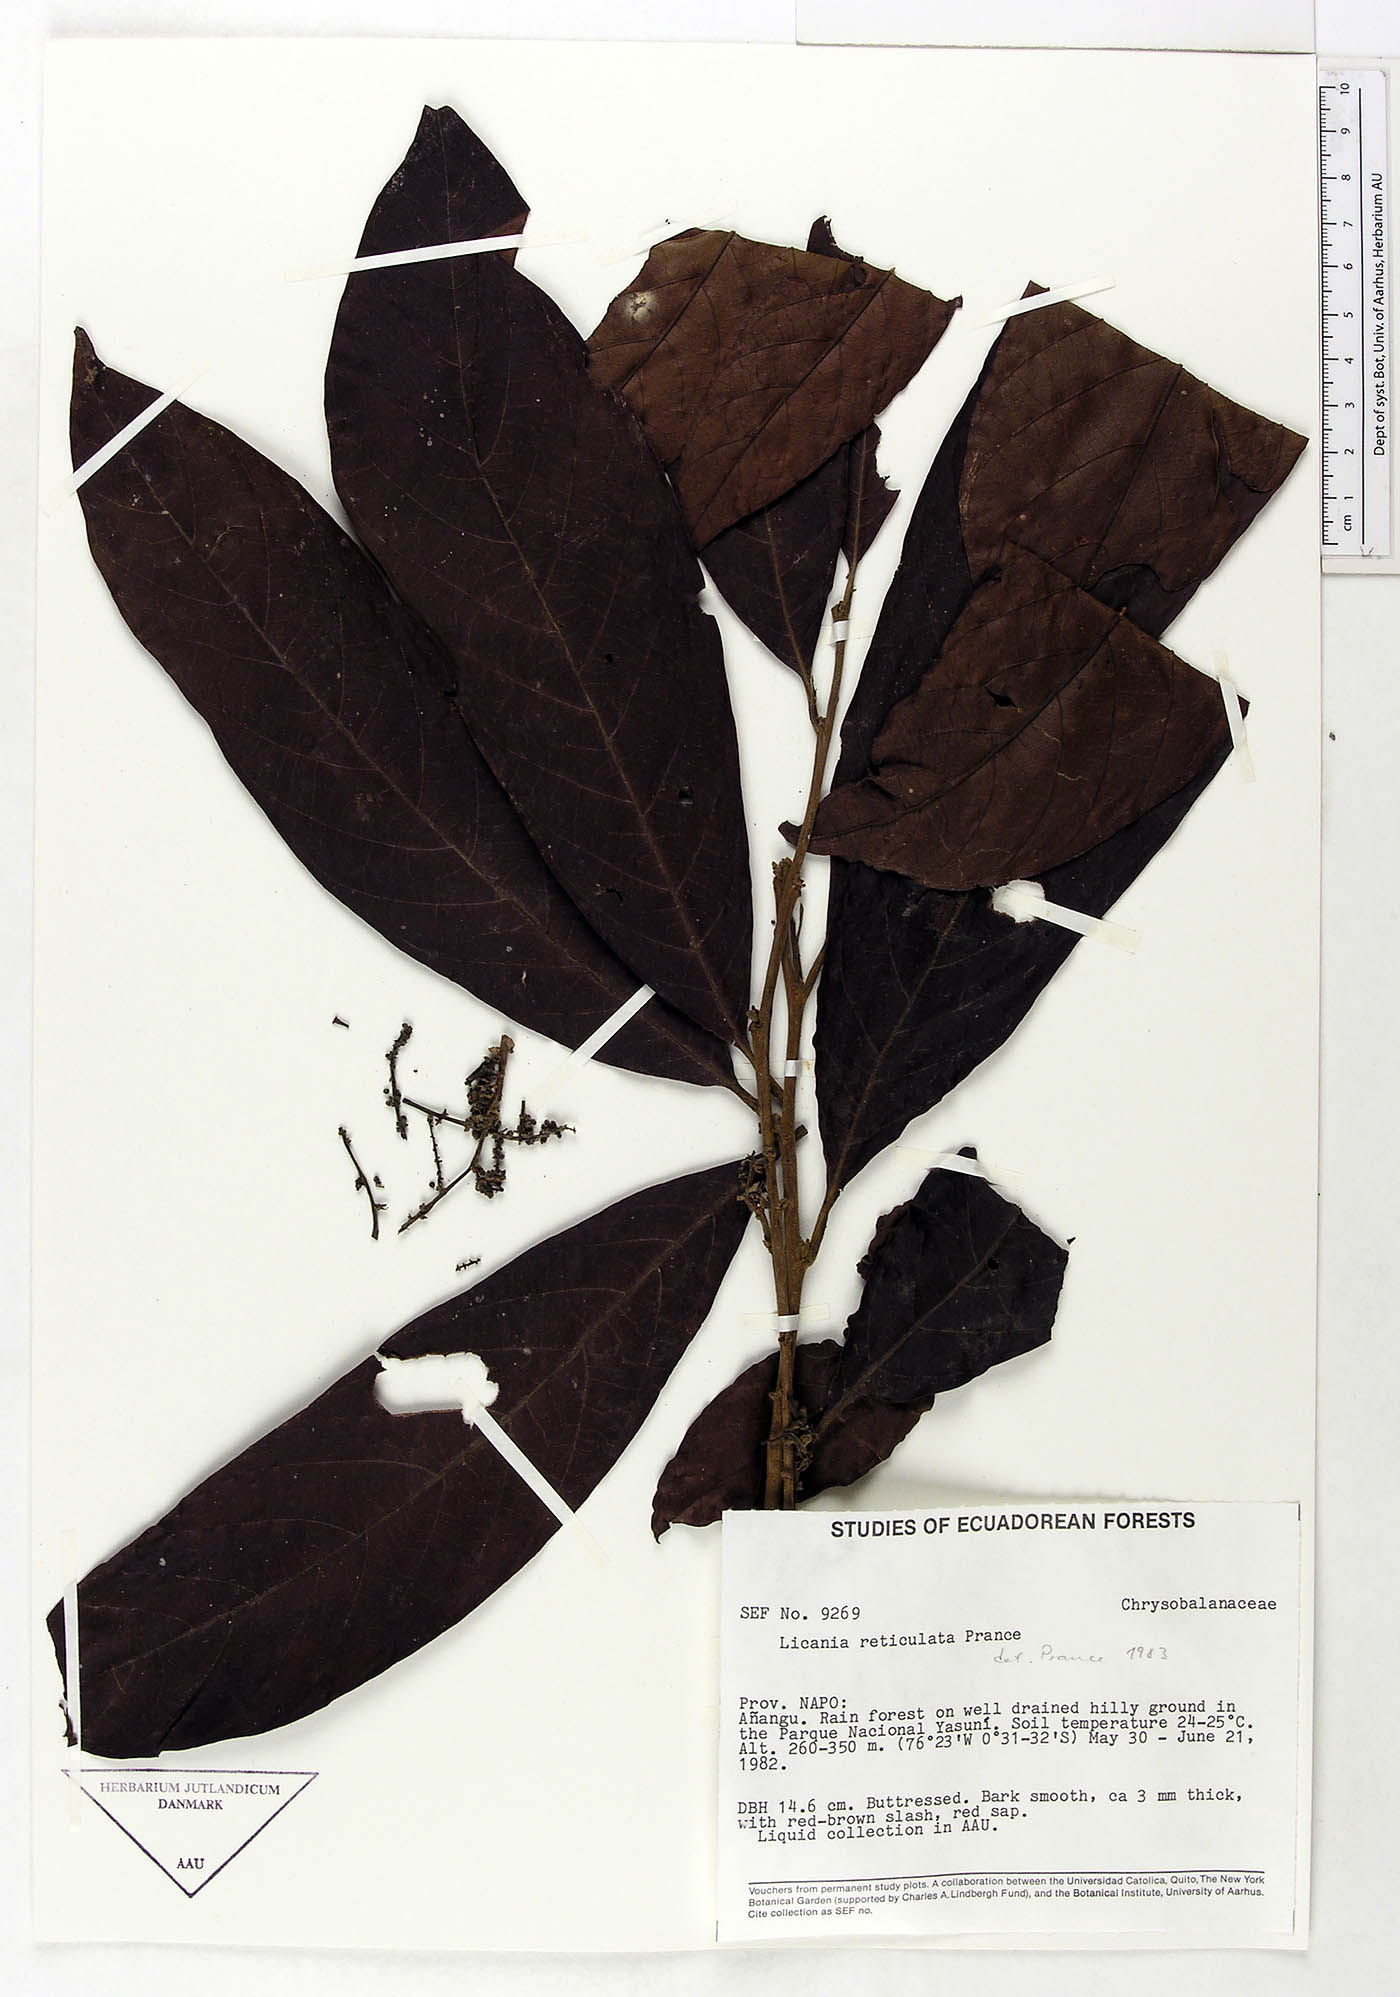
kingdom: Plantae
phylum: Tracheophyta
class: Magnoliopsida
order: Malpighiales
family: Chrysobalanaceae
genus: Hymenopus
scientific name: Hymenopus reticulatus
